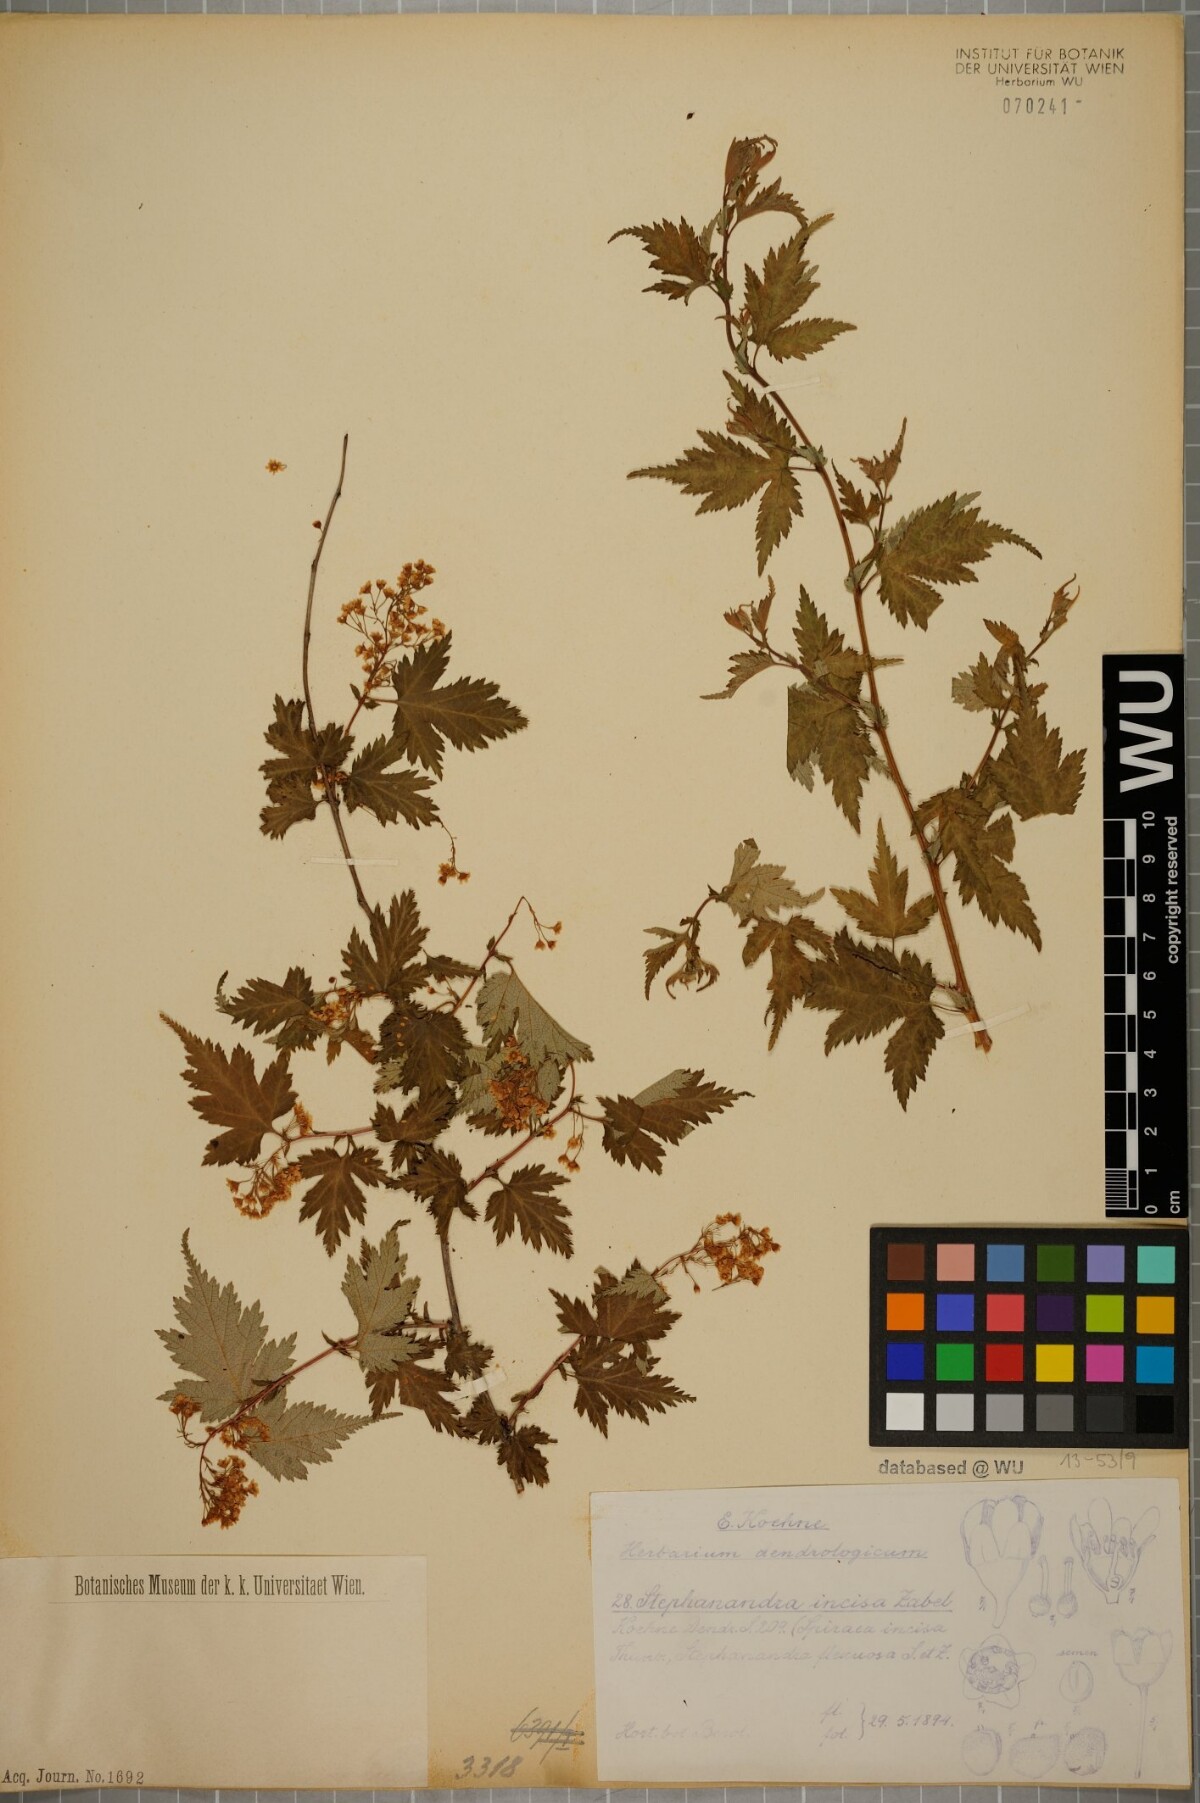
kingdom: Plantae
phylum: Tracheophyta
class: Magnoliopsida
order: Rosales
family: Rosaceae
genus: Neillia
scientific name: Neillia incisa
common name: Laceshrub
